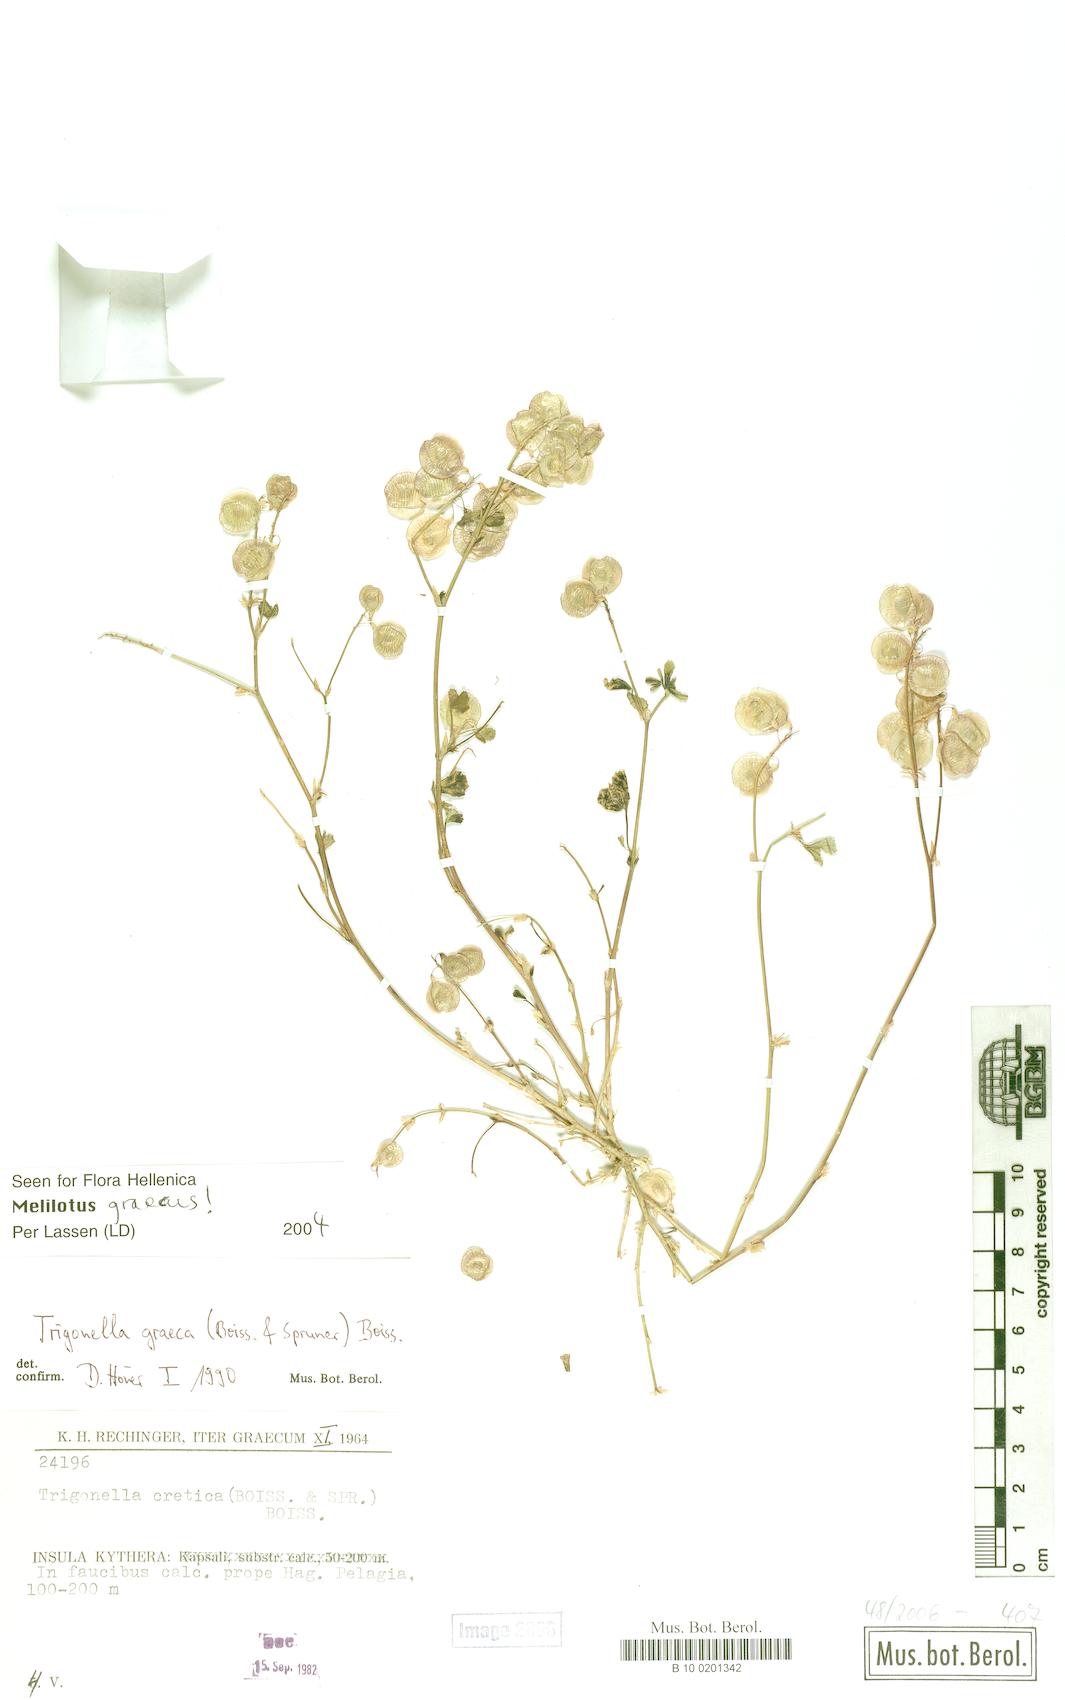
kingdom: Plantae
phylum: Tracheophyta
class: Magnoliopsida
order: Fabales
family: Fabaceae
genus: Trigonella
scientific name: Trigonella graeca
